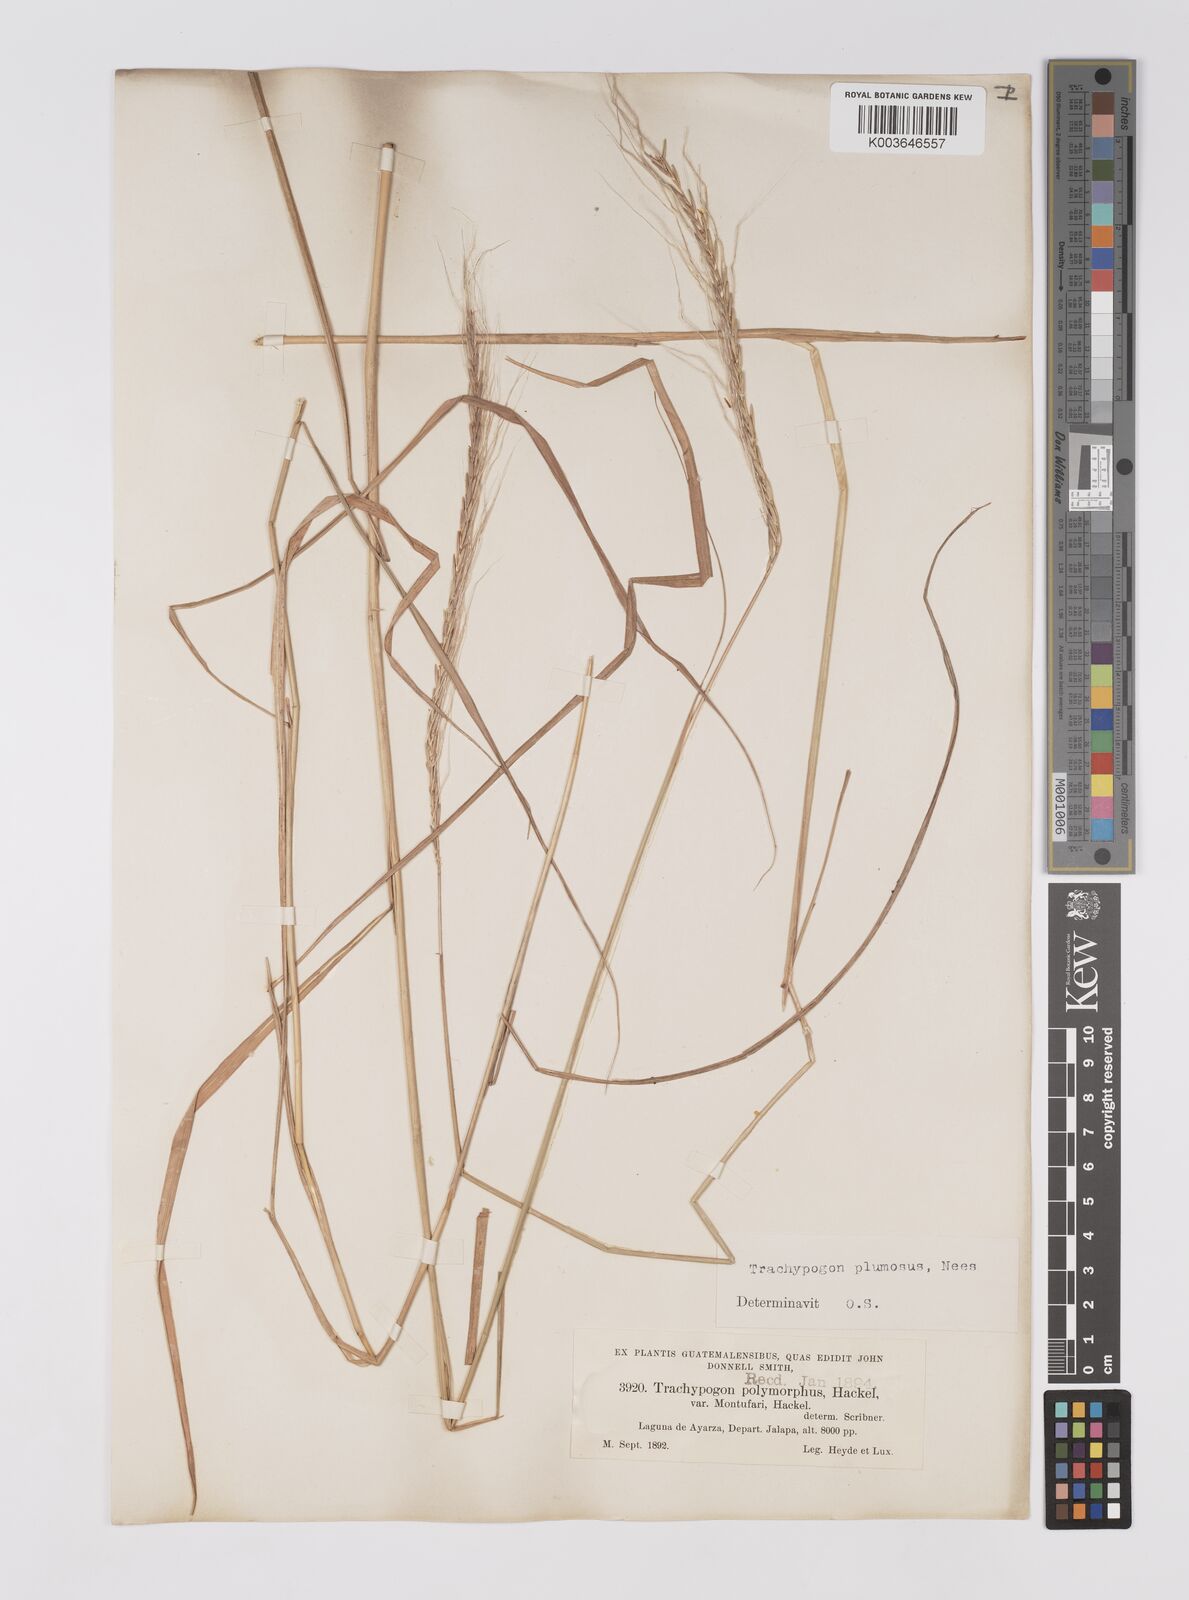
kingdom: Plantae
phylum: Tracheophyta
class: Liliopsida
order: Poales
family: Poaceae
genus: Trachypogon
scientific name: Trachypogon spicatus
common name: Crinkle-awn
